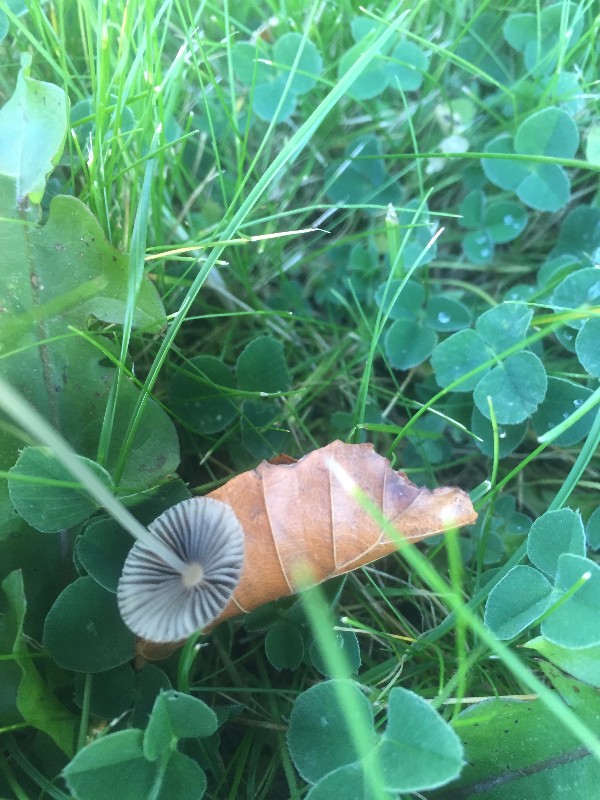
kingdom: Fungi
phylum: Basidiomycota
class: Agaricomycetes
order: Agaricales
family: Psathyrellaceae
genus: Parasola
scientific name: Parasola
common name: hjulhat
